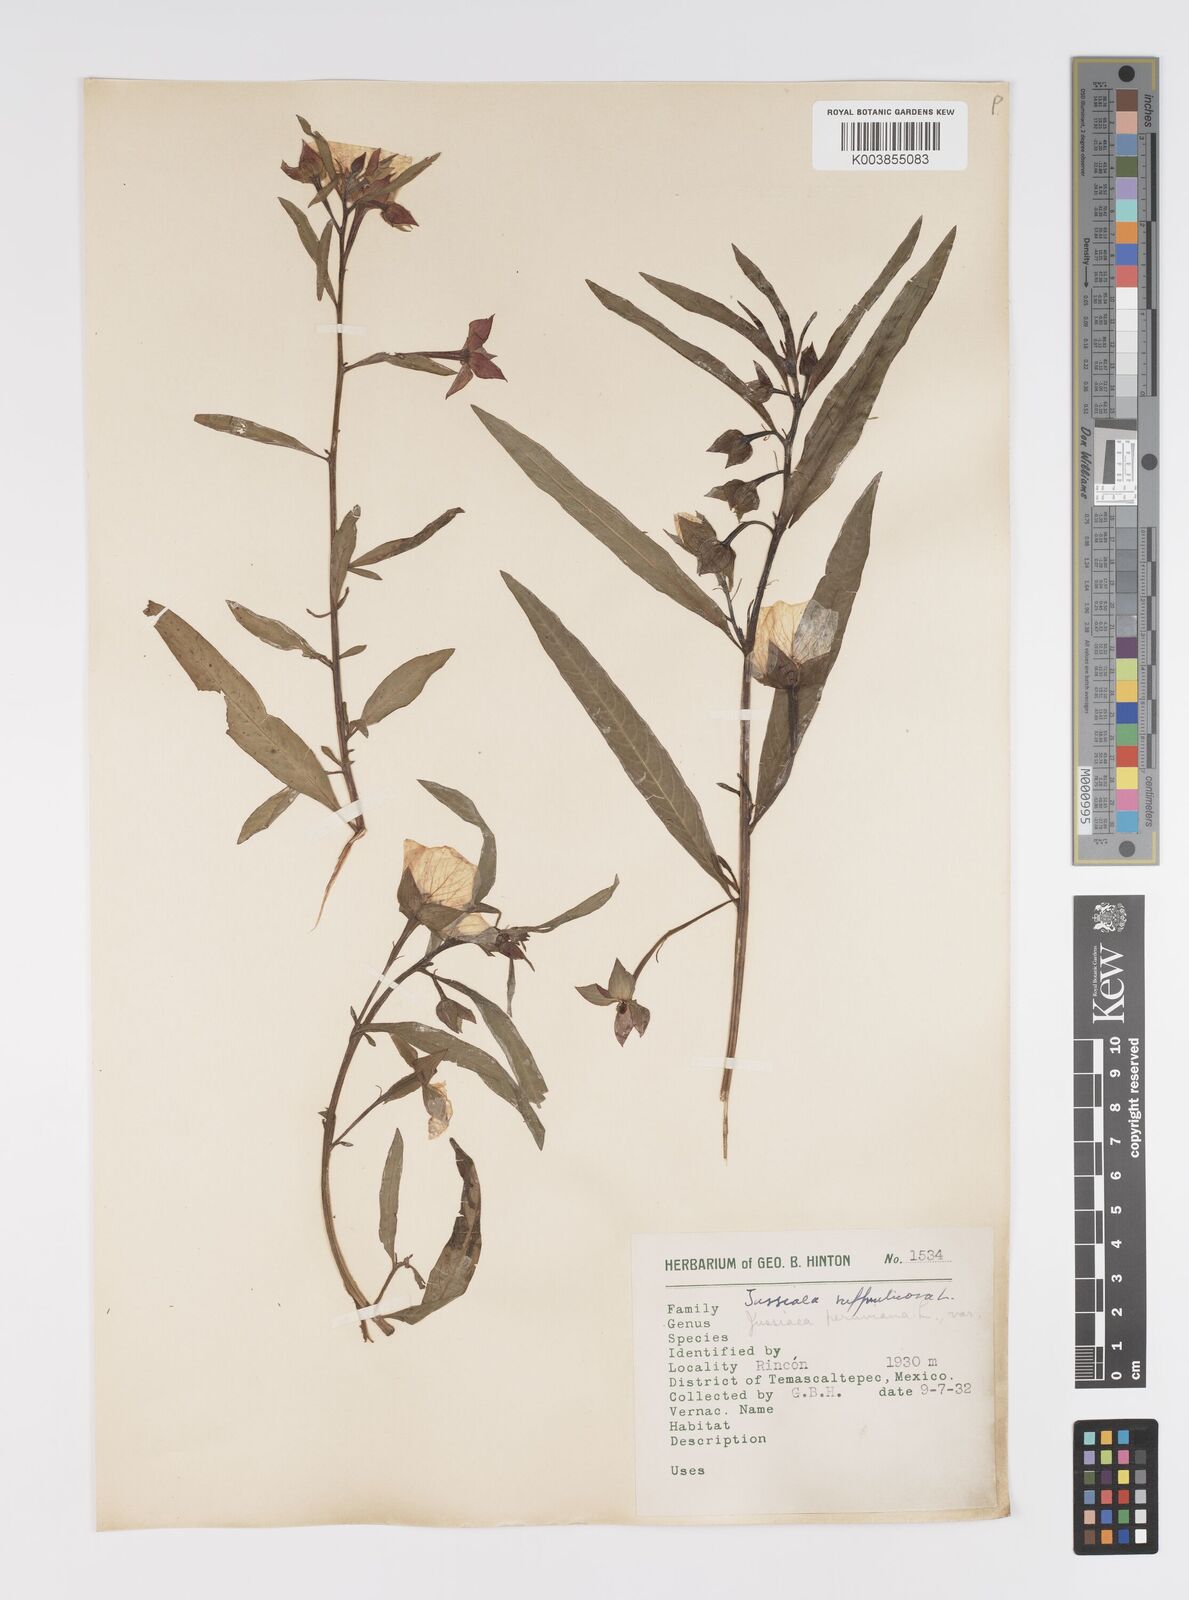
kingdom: Plantae
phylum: Tracheophyta
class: Magnoliopsida
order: Myrtales
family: Onagraceae
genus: Ludwigia
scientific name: Ludwigia octovalvis
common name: Water-primrose
